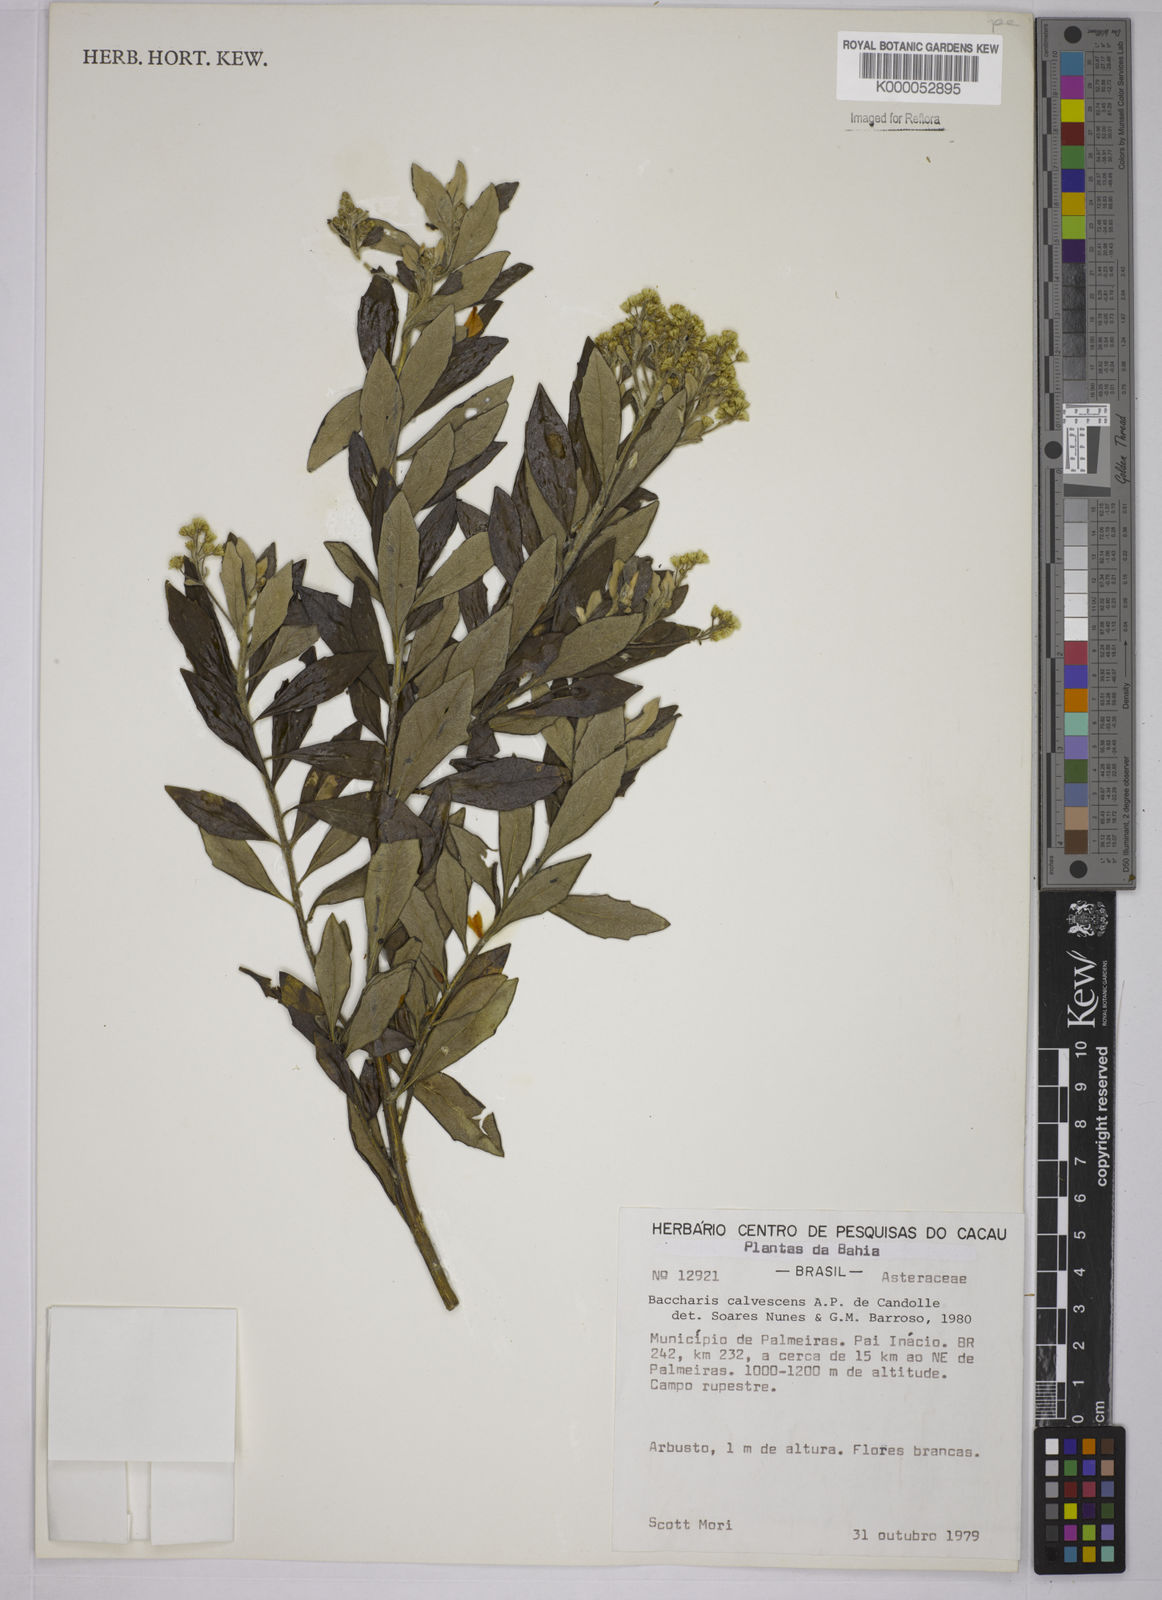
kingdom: Plantae
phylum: Tracheophyta
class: Magnoliopsida
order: Asterales
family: Asteraceae
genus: Baccharis
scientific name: Baccharis calvescens
